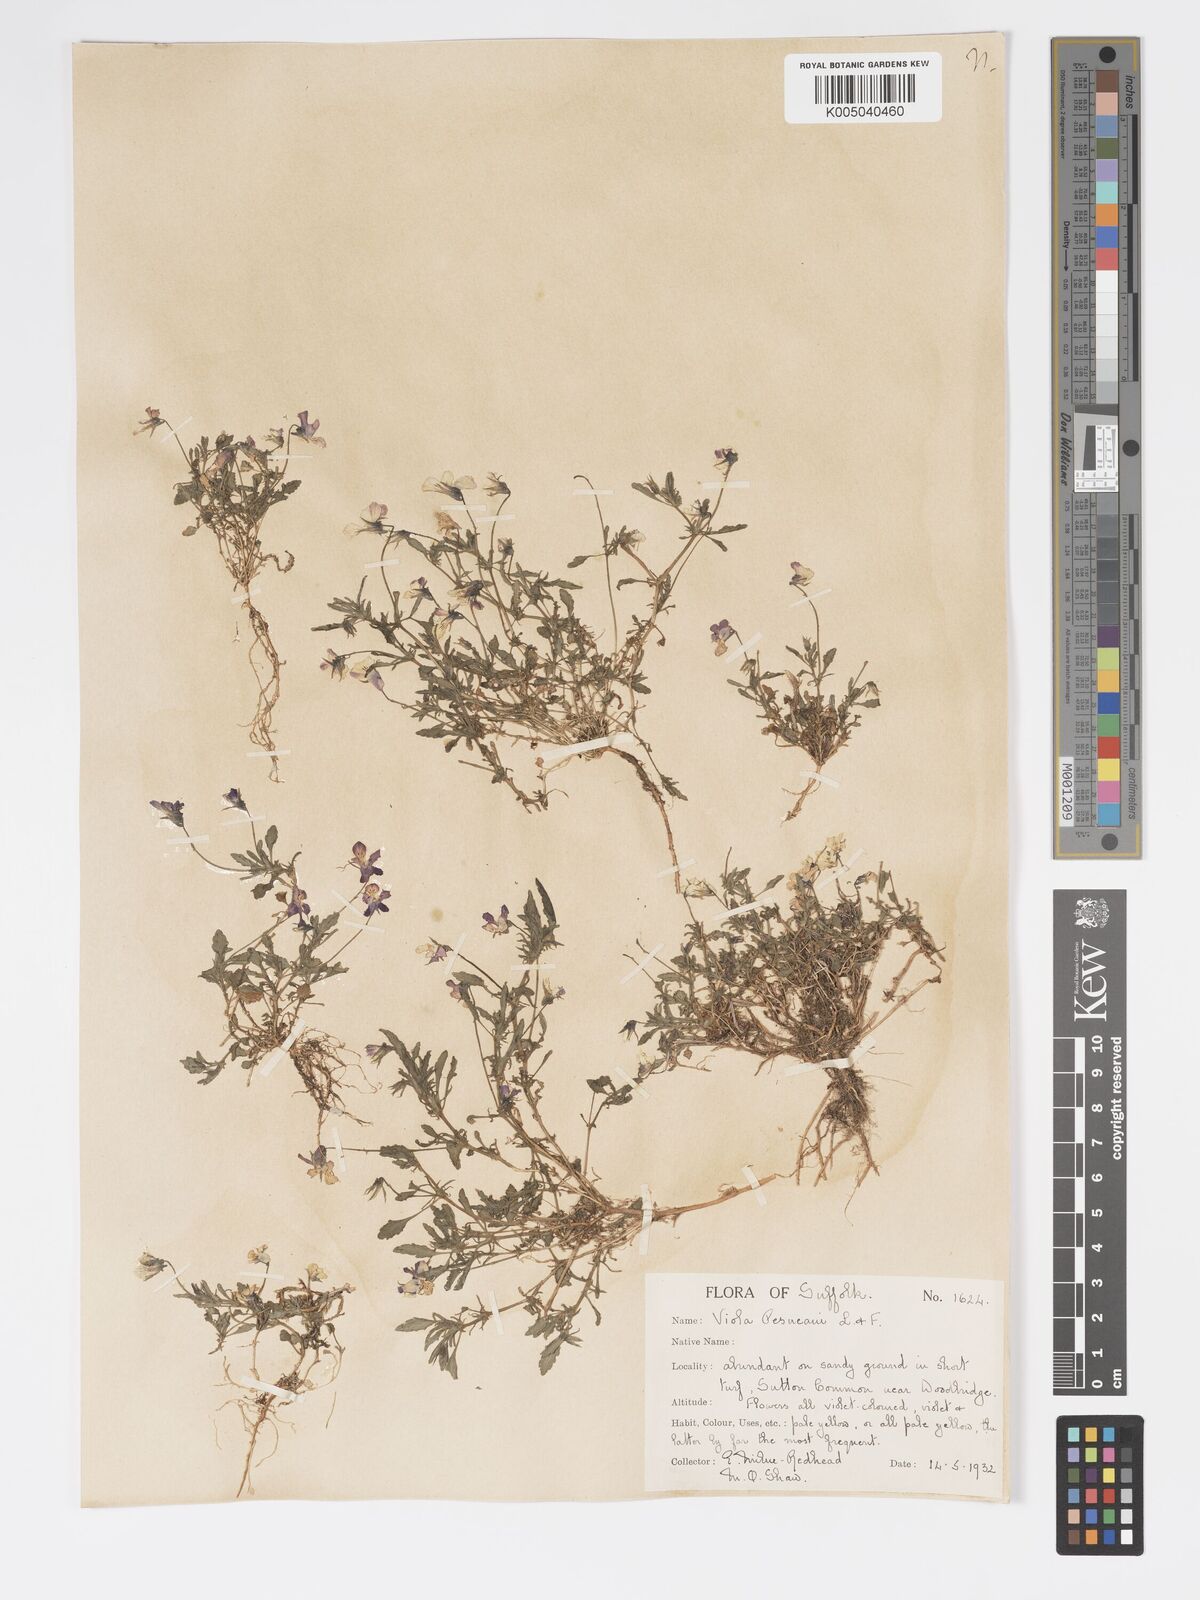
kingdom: Plantae
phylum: Tracheophyta
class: Magnoliopsida
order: Malpighiales
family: Violaceae
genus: Viola
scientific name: Viola arvensis
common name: Field pansy
